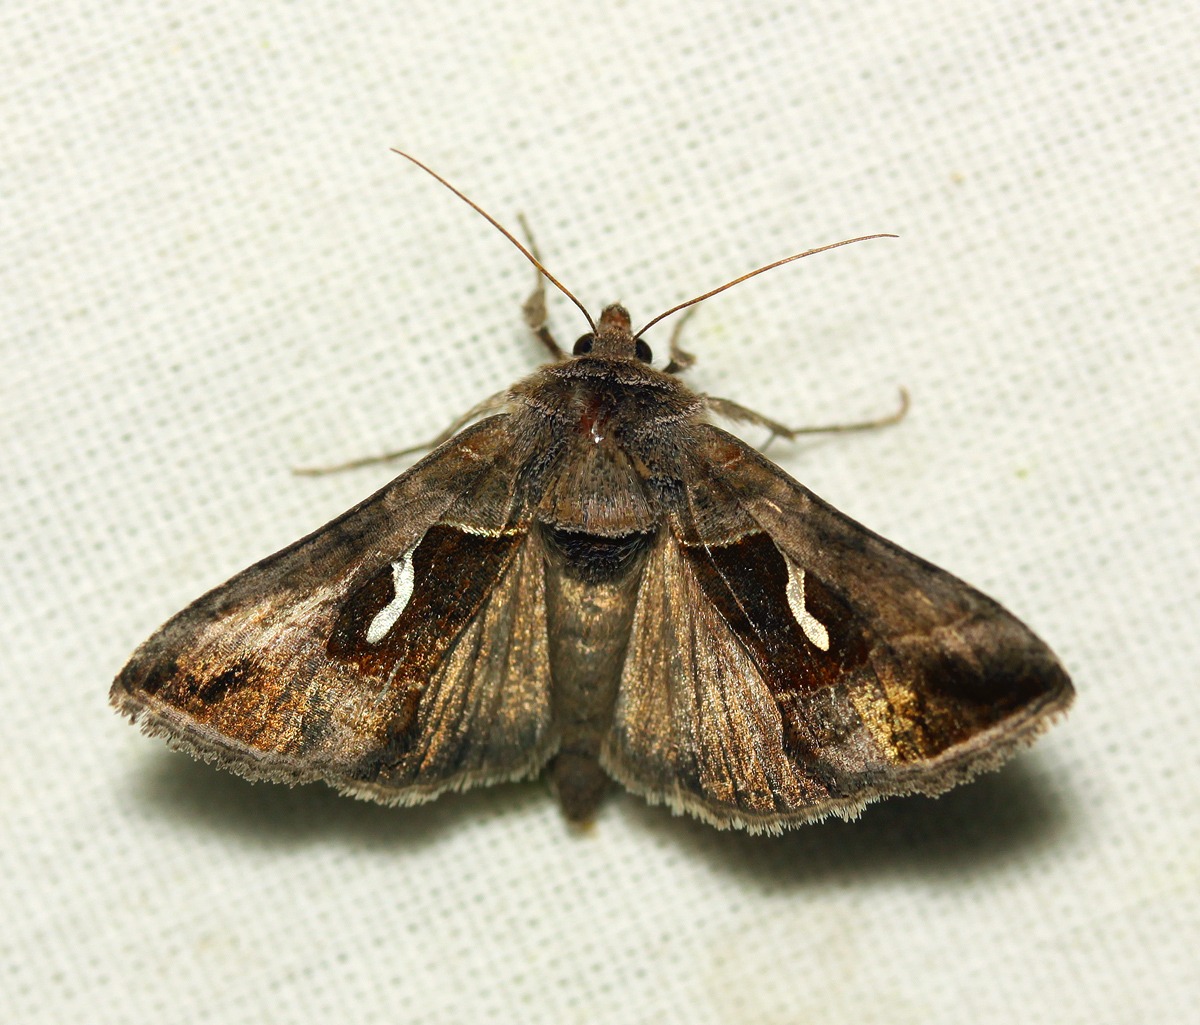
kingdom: Animalia
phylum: Arthropoda
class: Insecta
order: Lepidoptera
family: Noctuidae
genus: Macdunnoughia
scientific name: Macdunnoughia confusa
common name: Sølvdråbeugle
